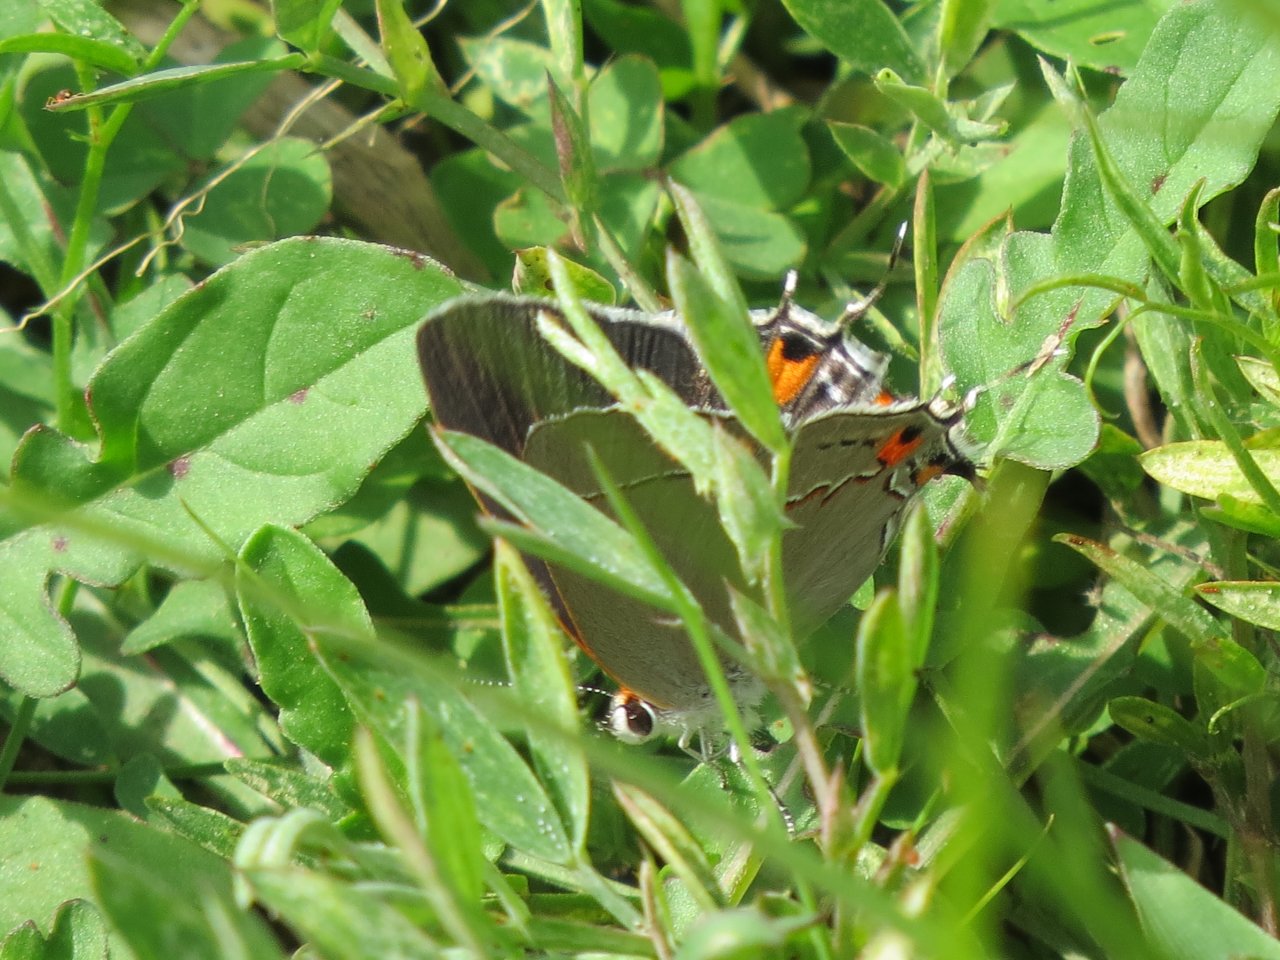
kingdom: Animalia
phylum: Arthropoda
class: Insecta
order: Lepidoptera
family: Lycaenidae
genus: Strymon
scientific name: Strymon melinus
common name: Gray Hairstreak
